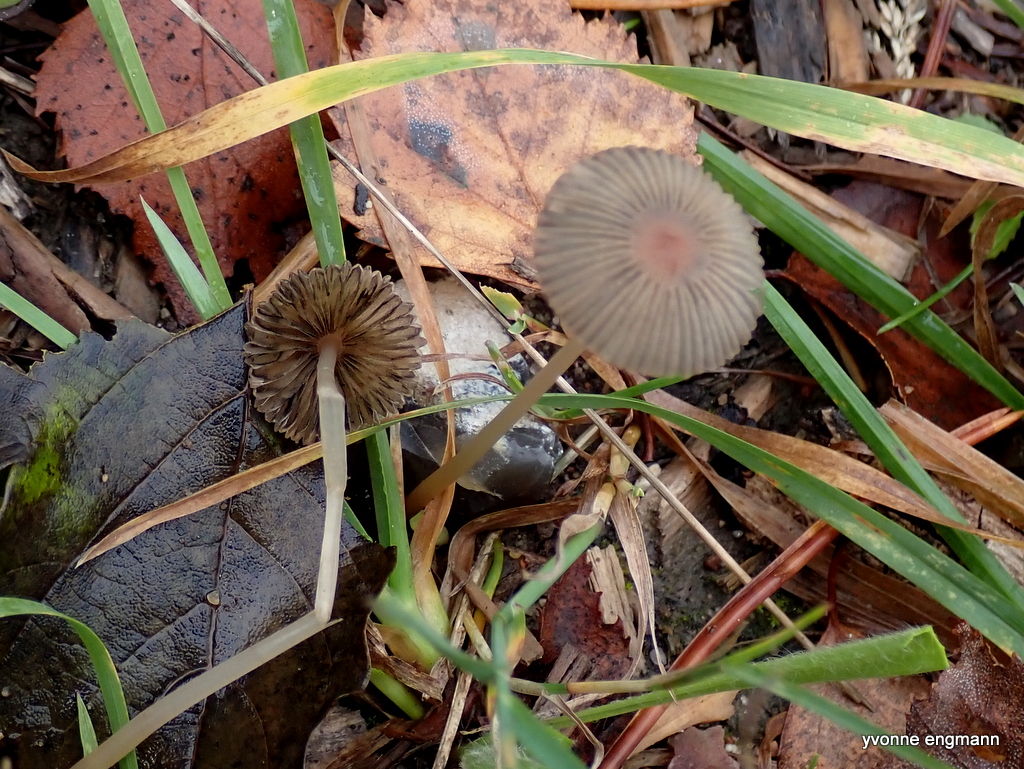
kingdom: Fungi
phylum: Basidiomycota
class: Agaricomycetes
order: Agaricales
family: Psathyrellaceae
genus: Parasola
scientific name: Parasola
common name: hjulhat
